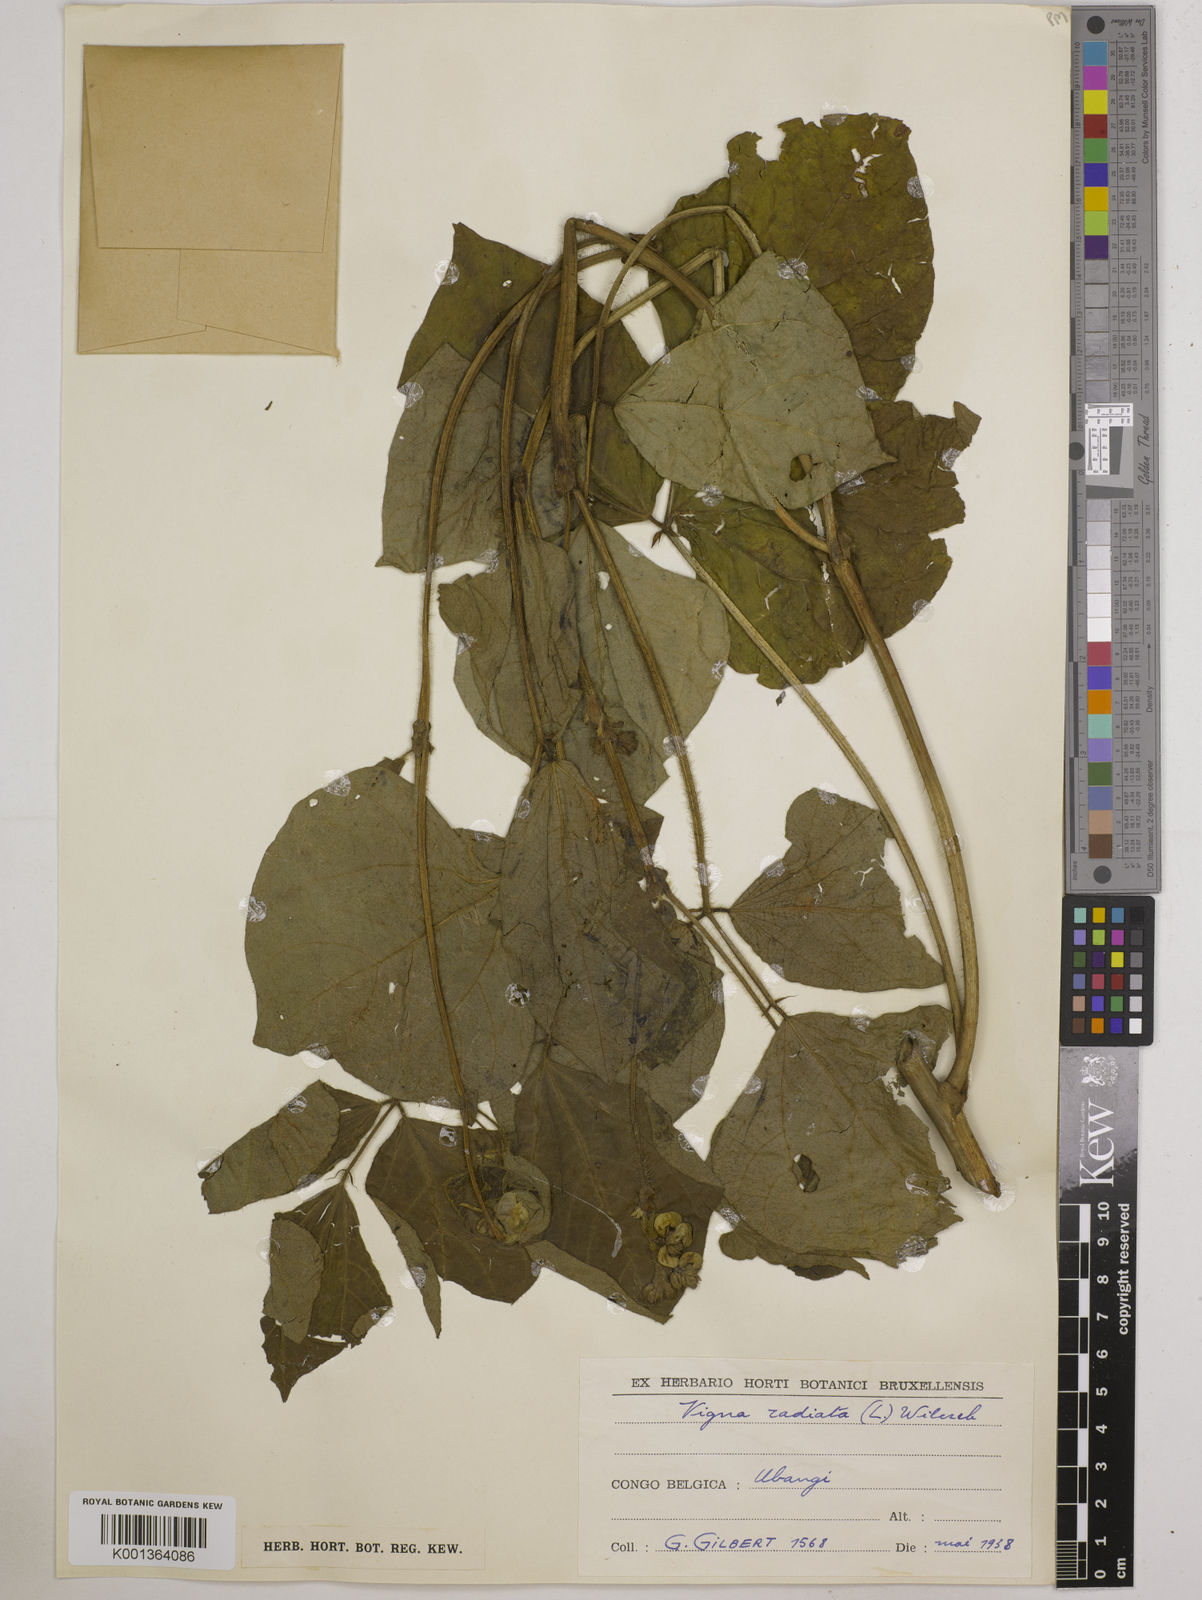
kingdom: Plantae
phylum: Tracheophyta
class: Magnoliopsida
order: Fabales
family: Fabaceae
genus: Vigna
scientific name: Vigna radiata
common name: Mung-bean
